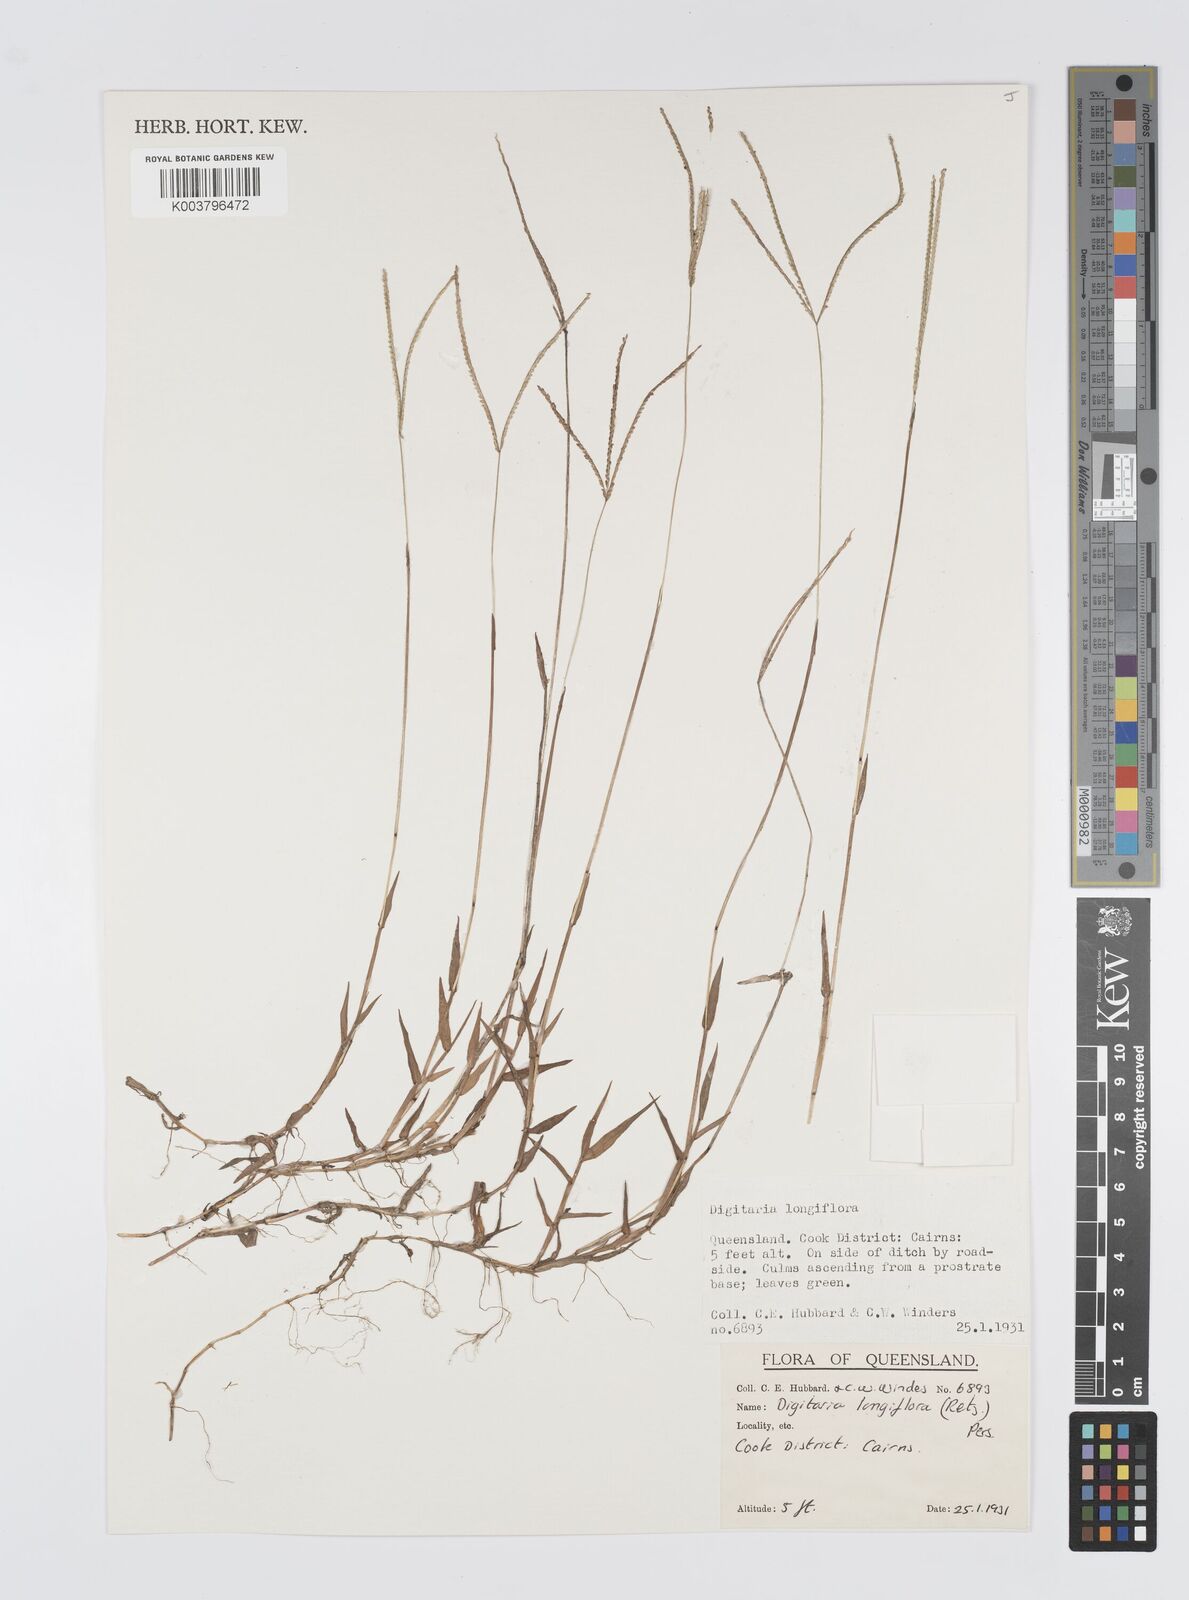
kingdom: Plantae
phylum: Tracheophyta
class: Liliopsida
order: Poales
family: Poaceae
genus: Digitaria
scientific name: Digitaria longiflora
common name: Wire crabgrass
